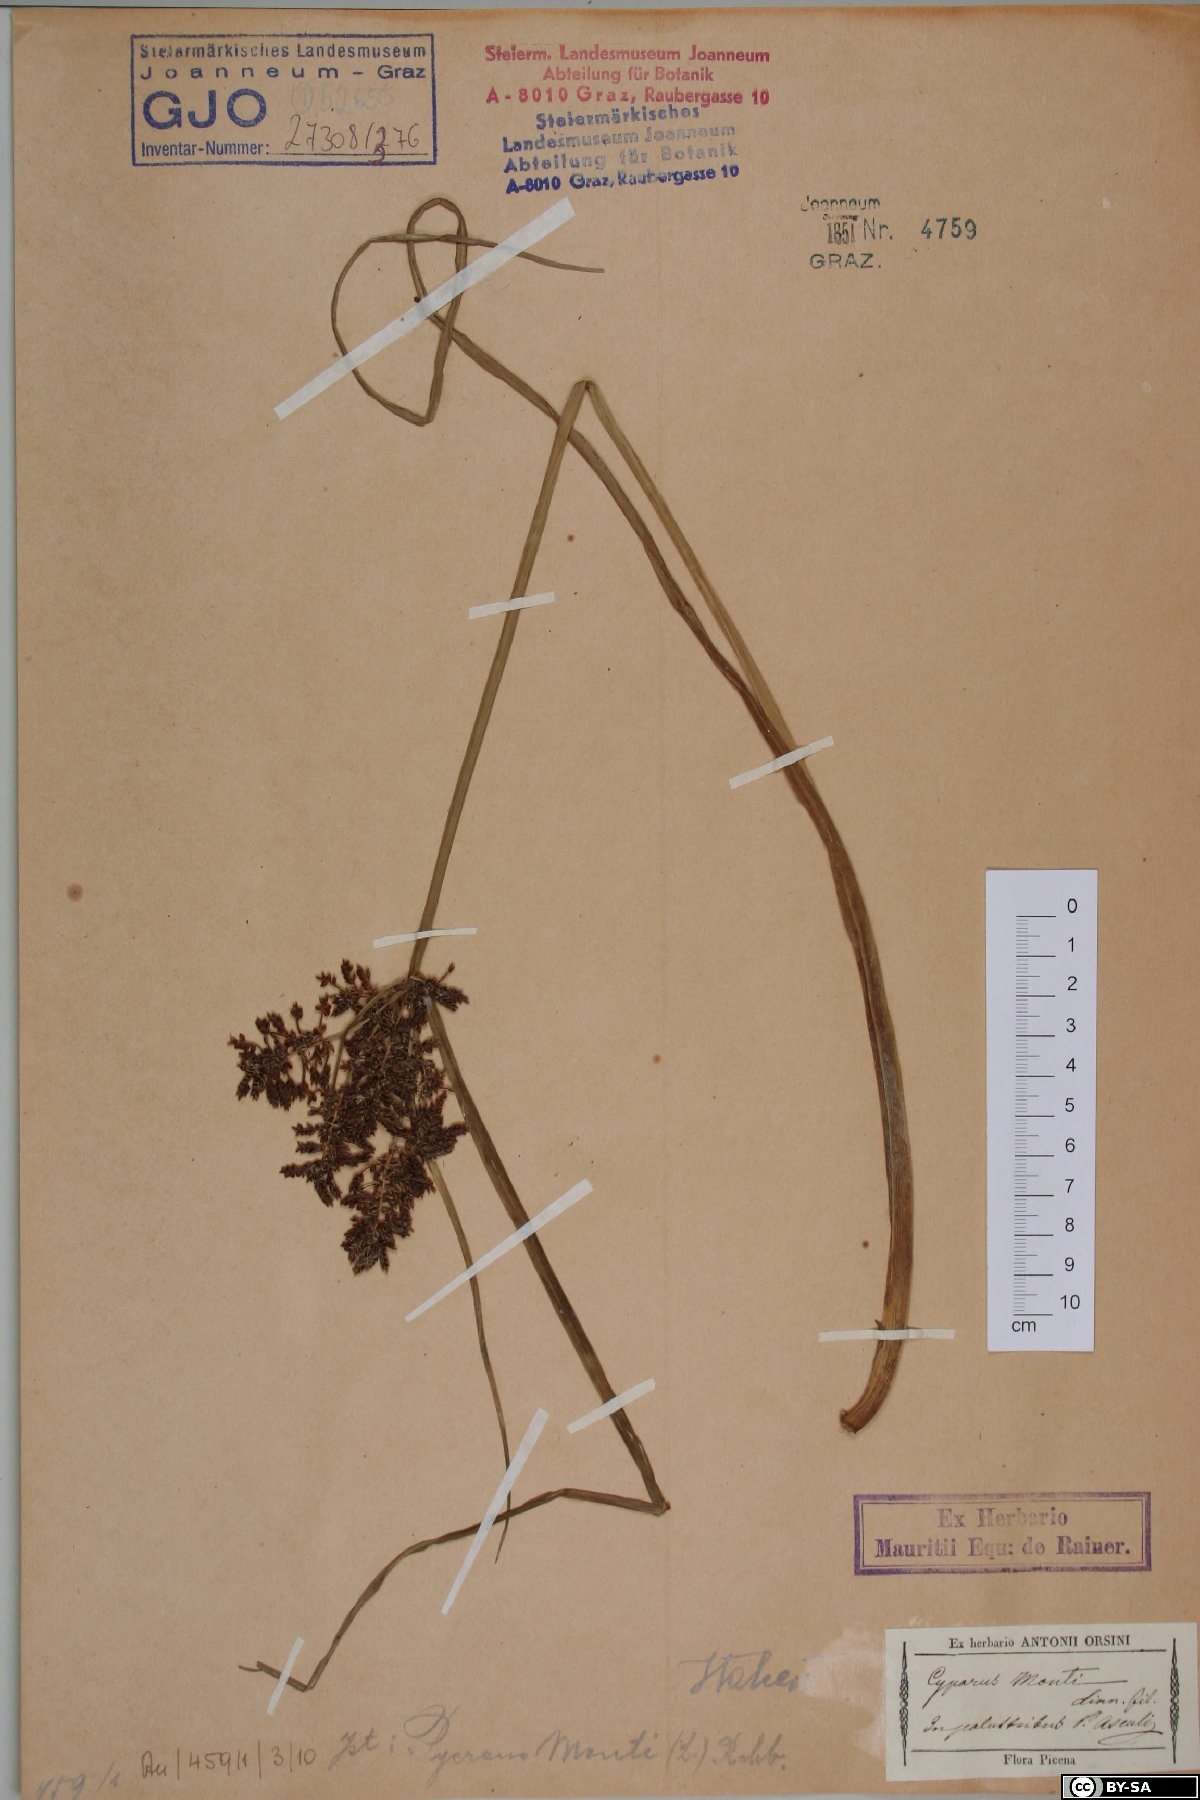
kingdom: Plantae
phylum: Tracheophyta
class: Liliopsida
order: Poales
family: Cyperaceae
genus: Cyperus
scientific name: Cyperus serotinus
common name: Tidalmarsh flatsedge
